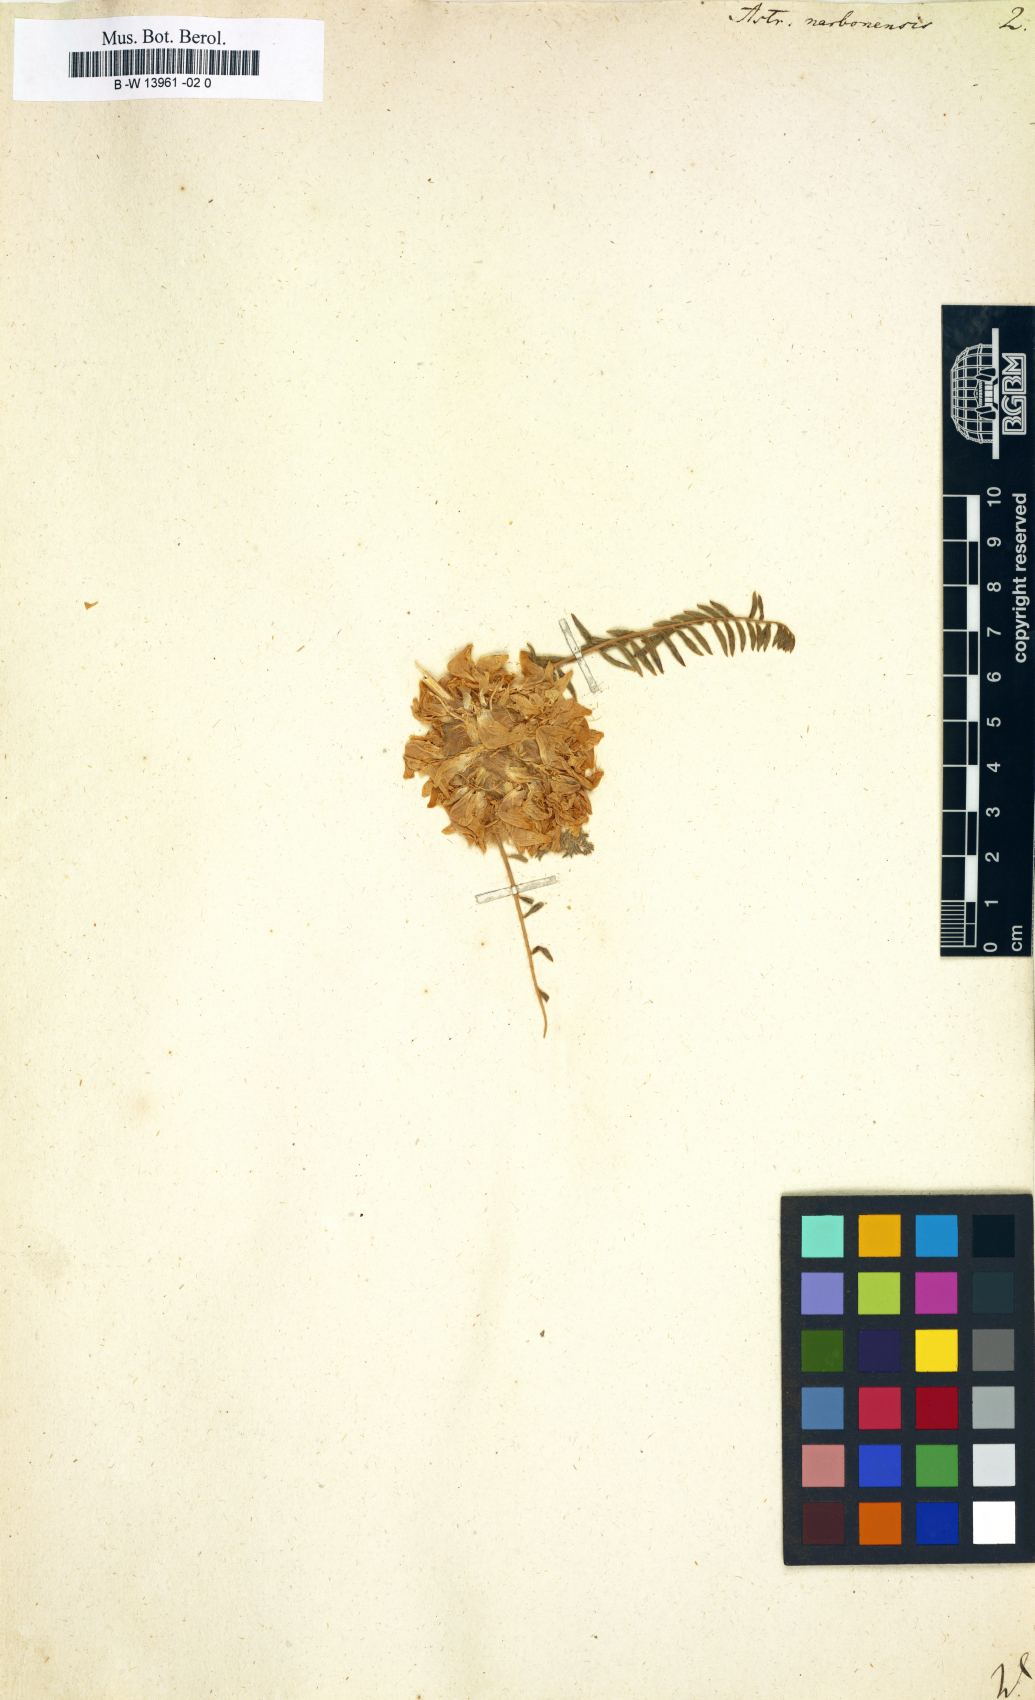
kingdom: Plantae
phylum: Tracheophyta
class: Magnoliopsida
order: Fabales
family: Fabaceae
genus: Astragalus
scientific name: Astragalus
